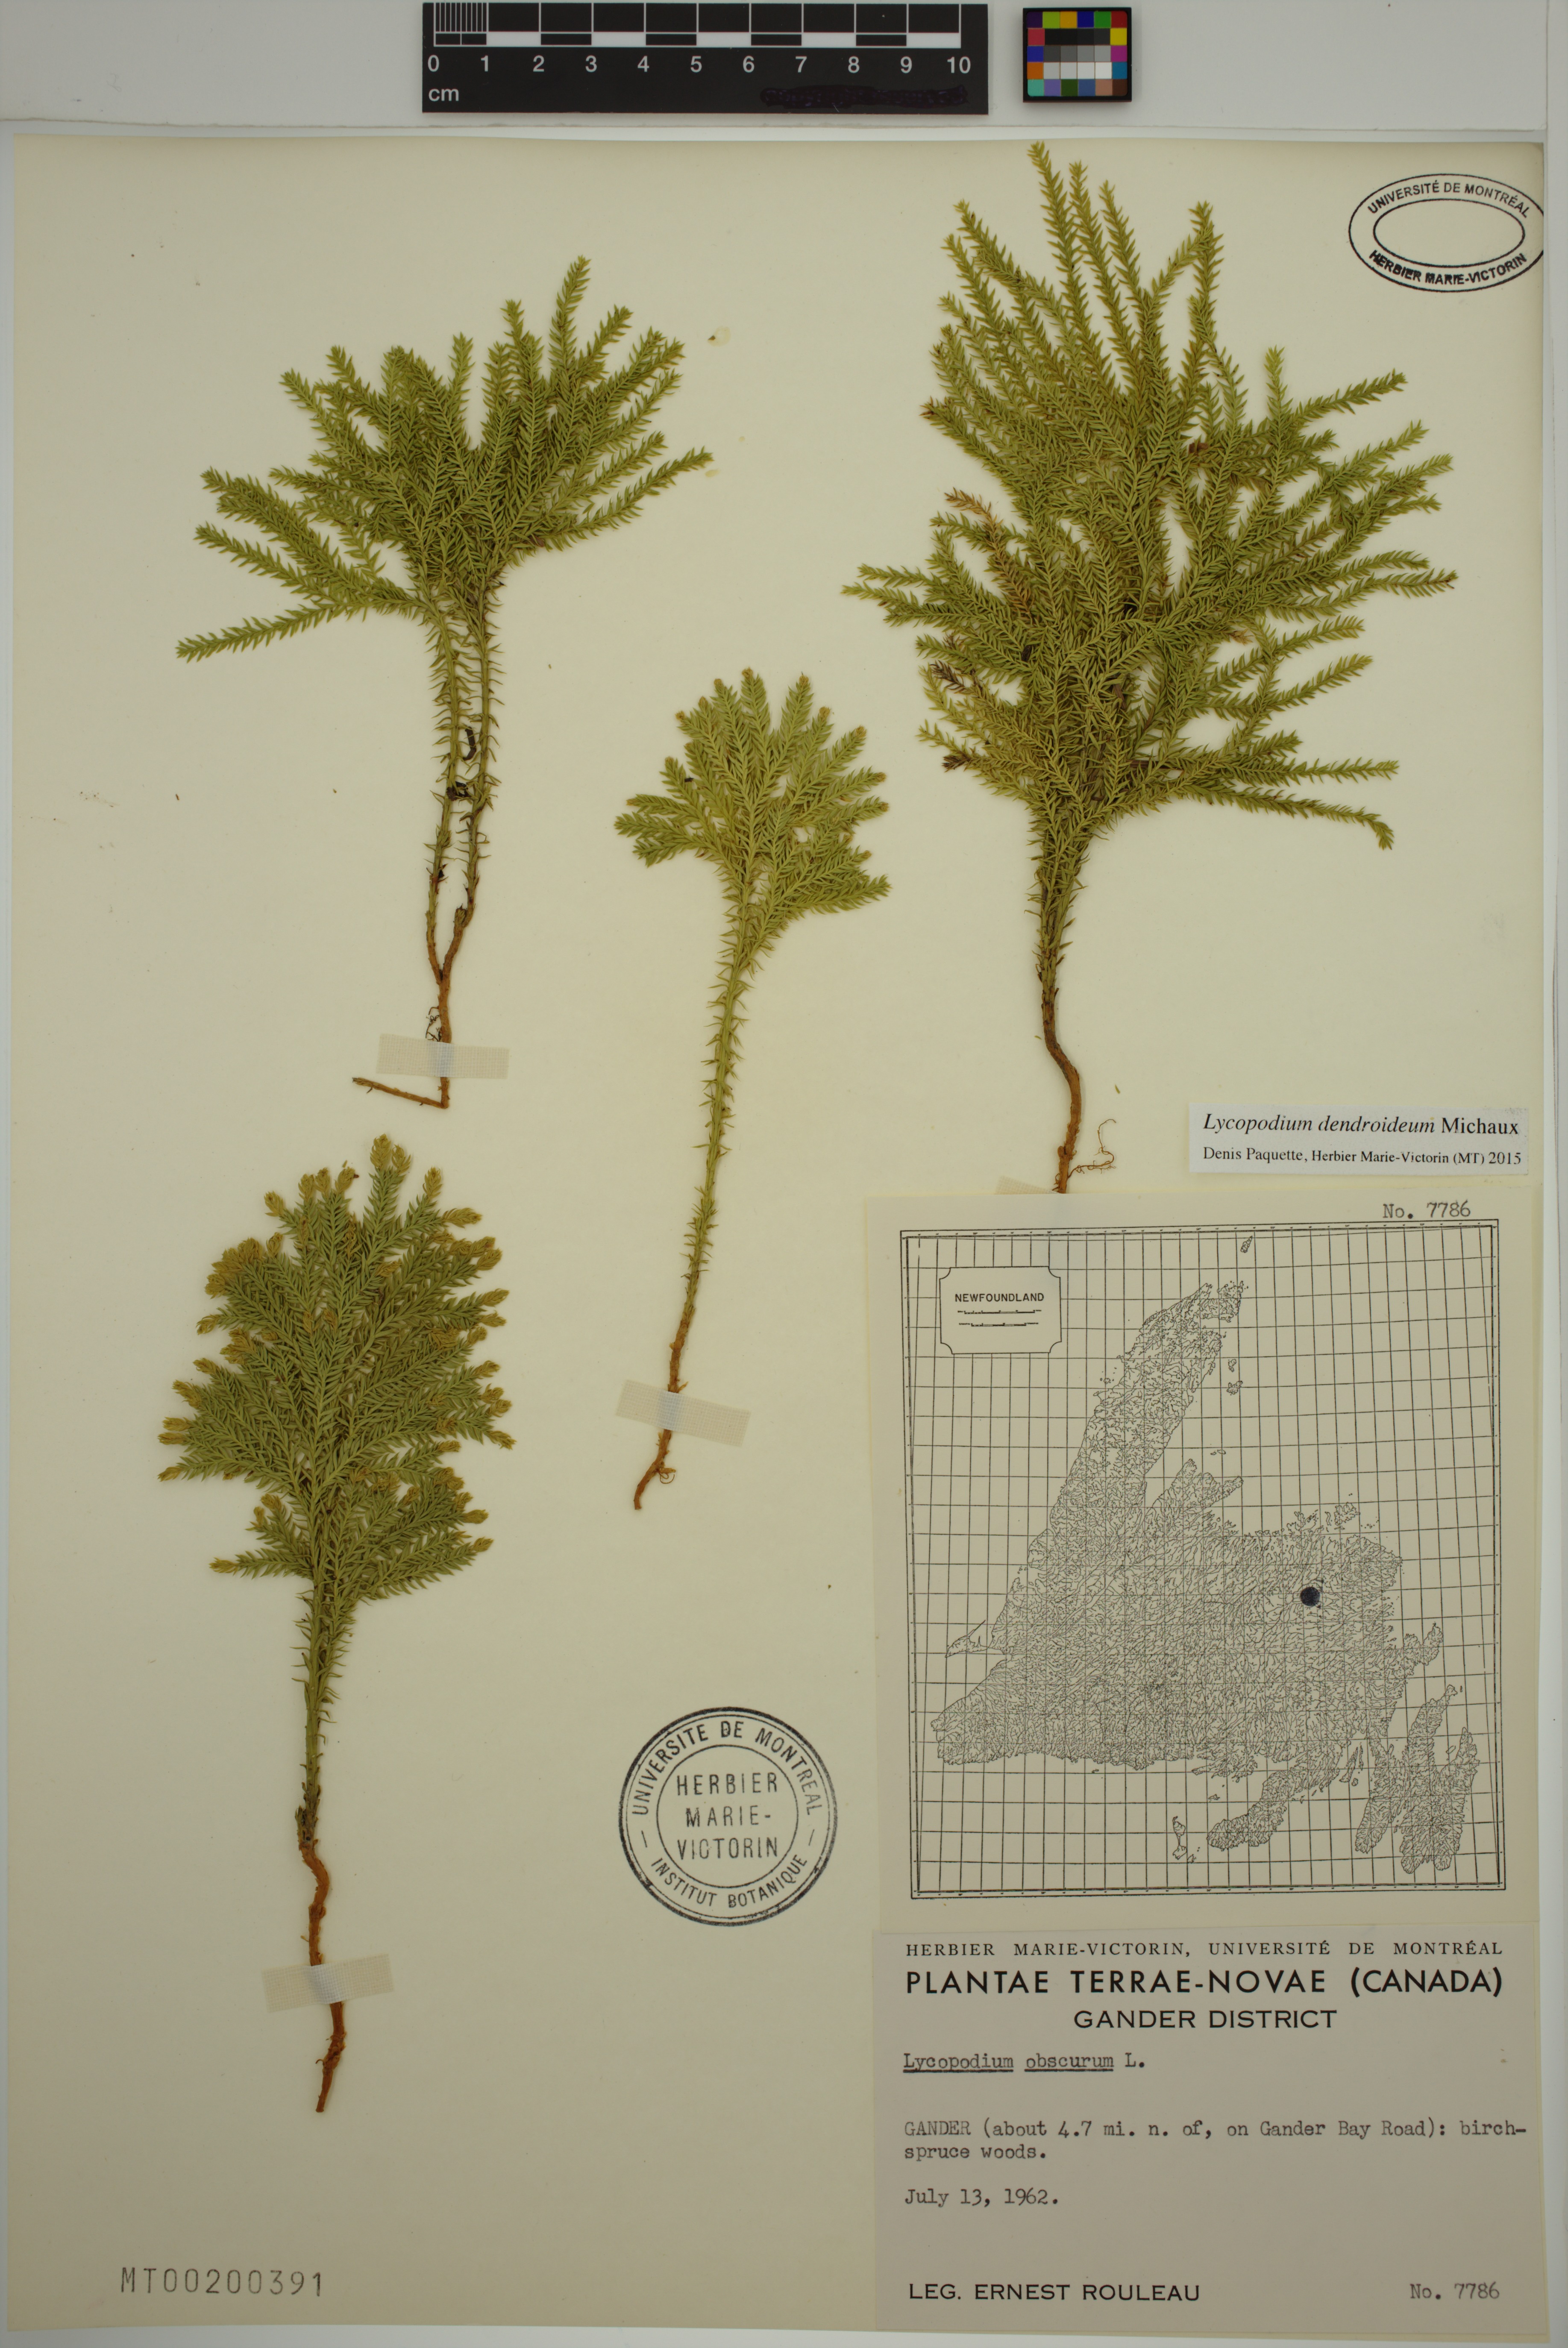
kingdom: Plantae
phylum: Tracheophyta
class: Lycopodiopsida
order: Lycopodiales
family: Lycopodiaceae
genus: Dendrolycopodium
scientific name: Dendrolycopodium dendroideum
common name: Northern tree-clubmoss
